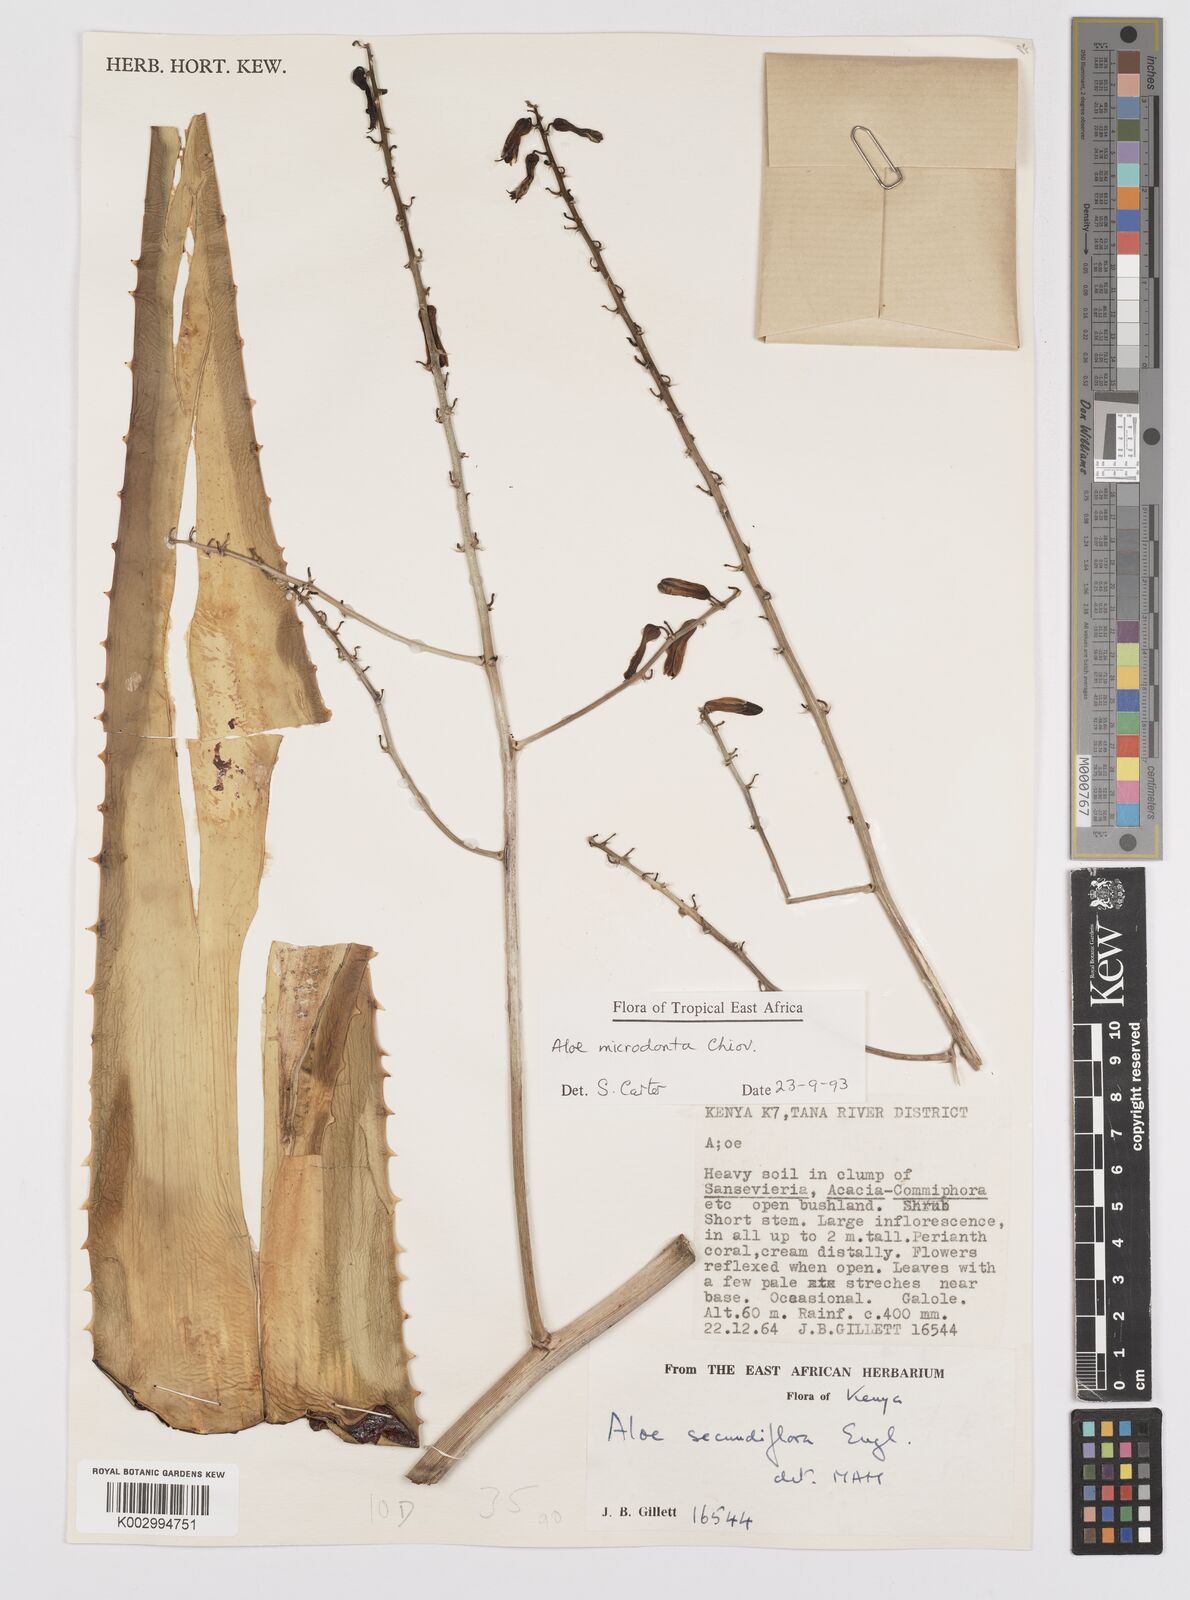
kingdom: Plantae
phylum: Tracheophyta
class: Liliopsida
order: Asparagales
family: Asphodelaceae
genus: Aloe
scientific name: Aloe microdonta
